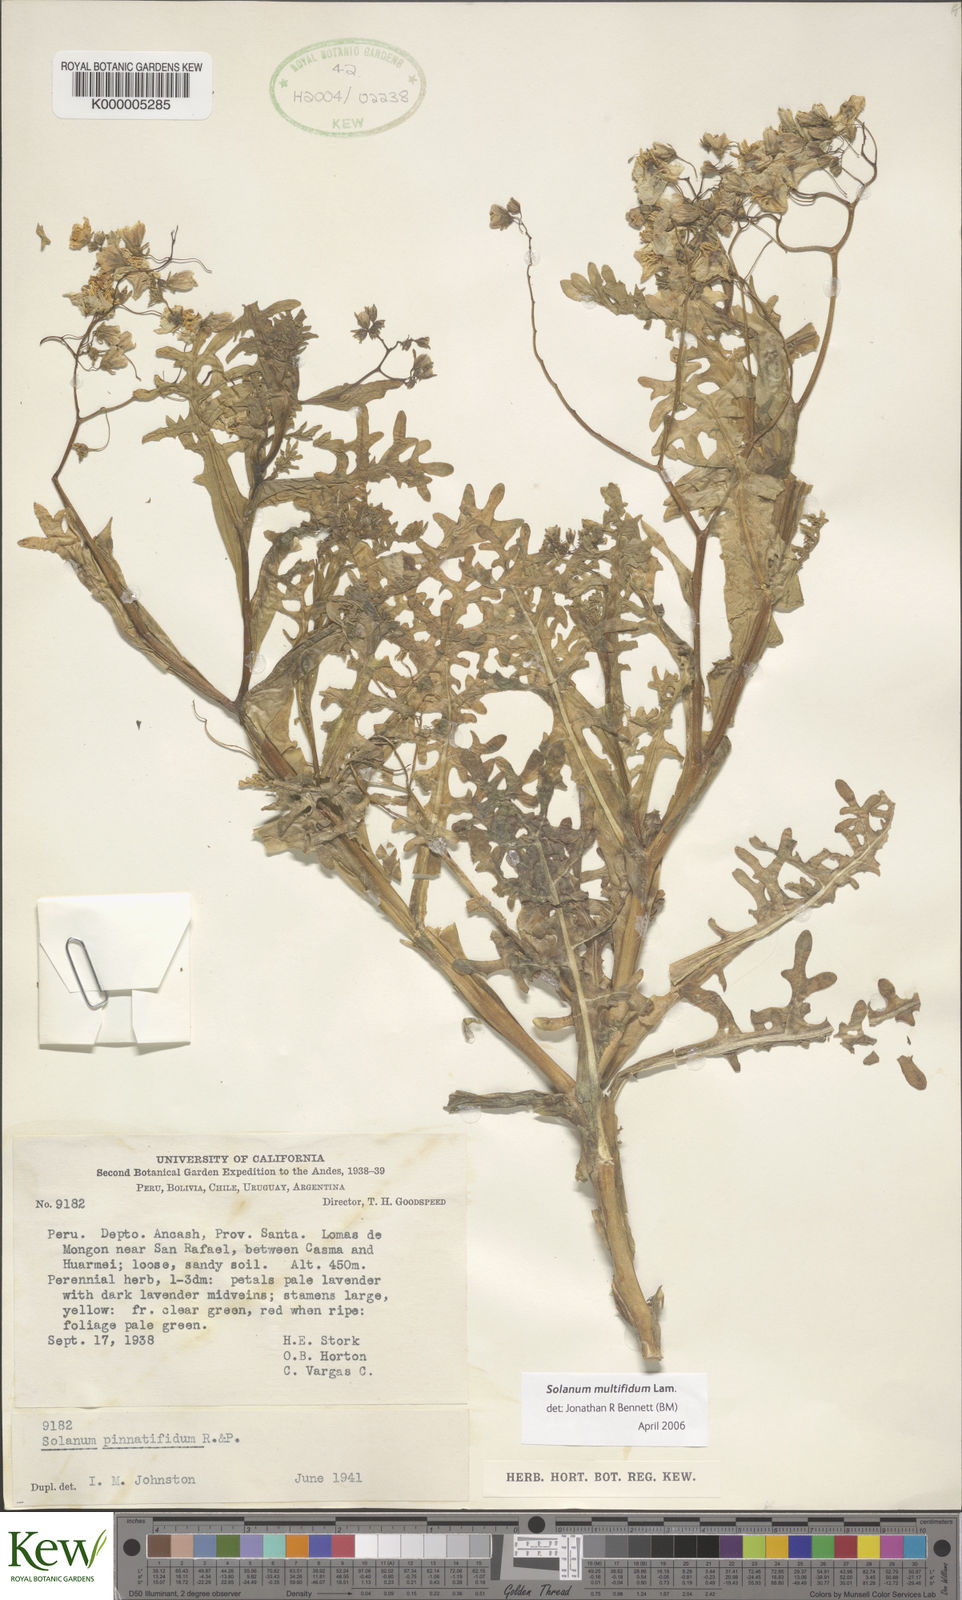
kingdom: Plantae
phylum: Tracheophyta
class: Magnoliopsida
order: Solanales
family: Solanaceae
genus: Solanum
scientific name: Solanum multifidum
